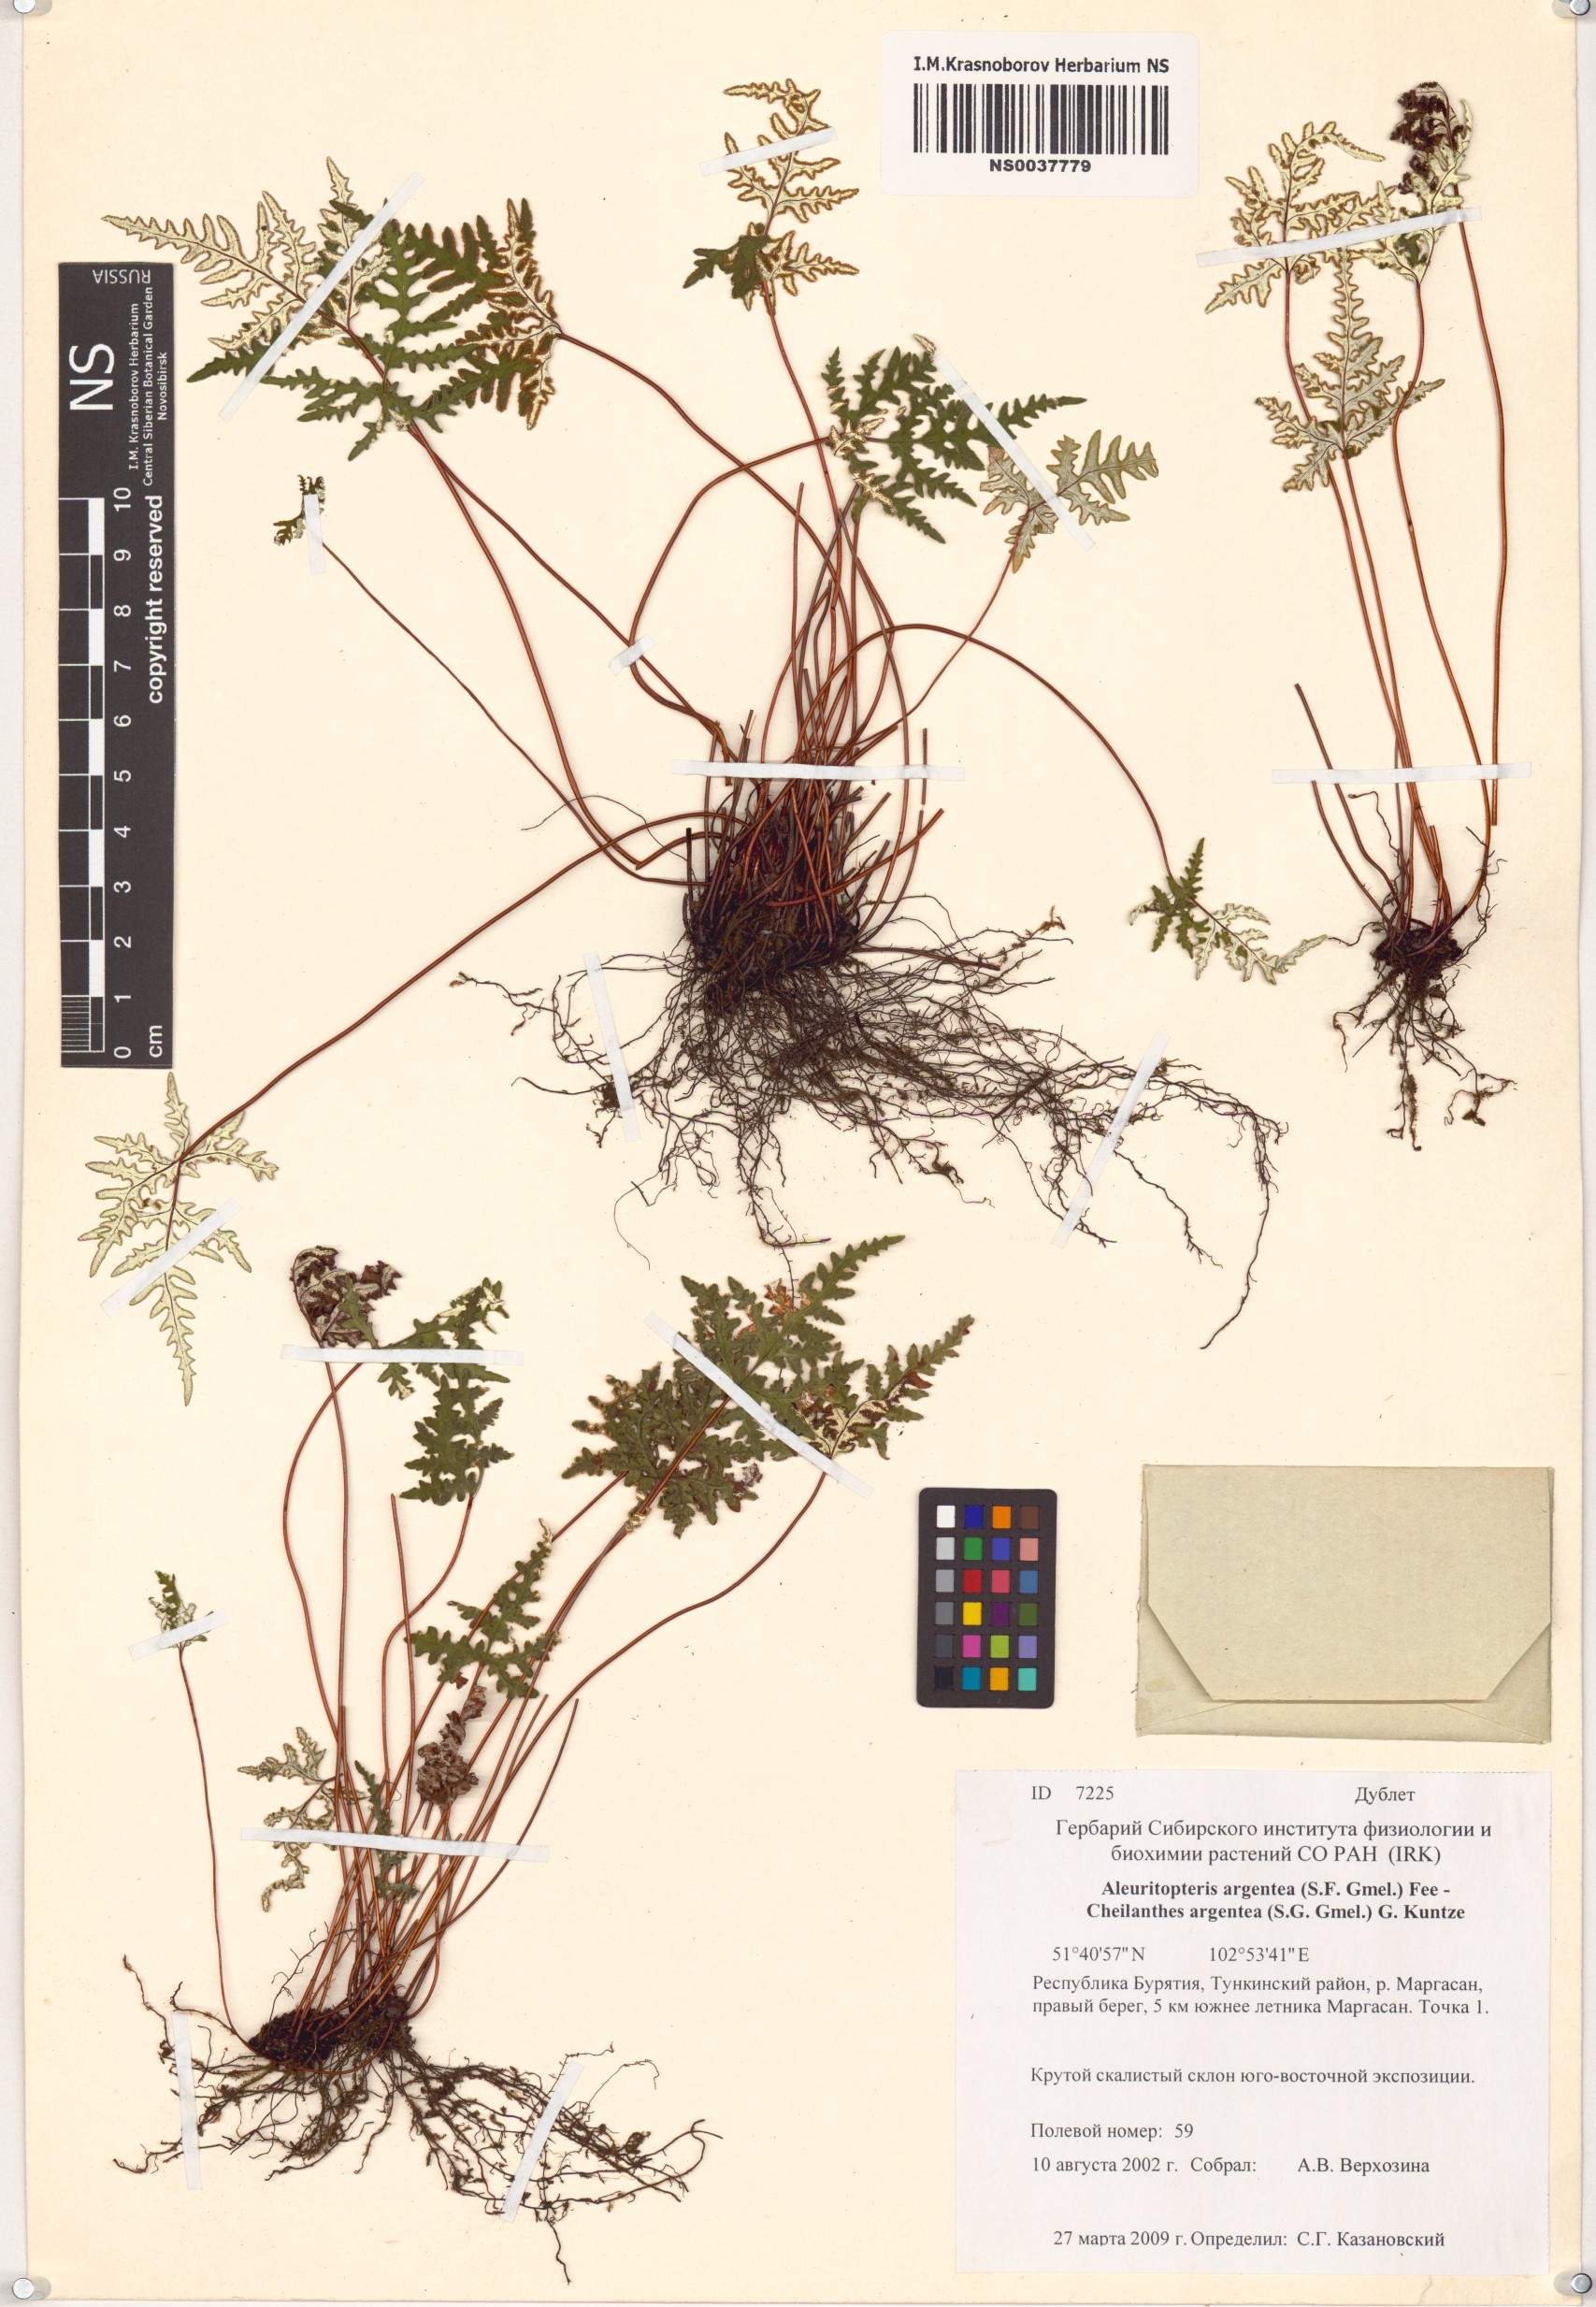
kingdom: Plantae
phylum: Tracheophyta
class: Polypodiopsida
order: Polypodiales
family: Pteridaceae
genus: Aleuritopteris
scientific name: Aleuritopteris argentea
